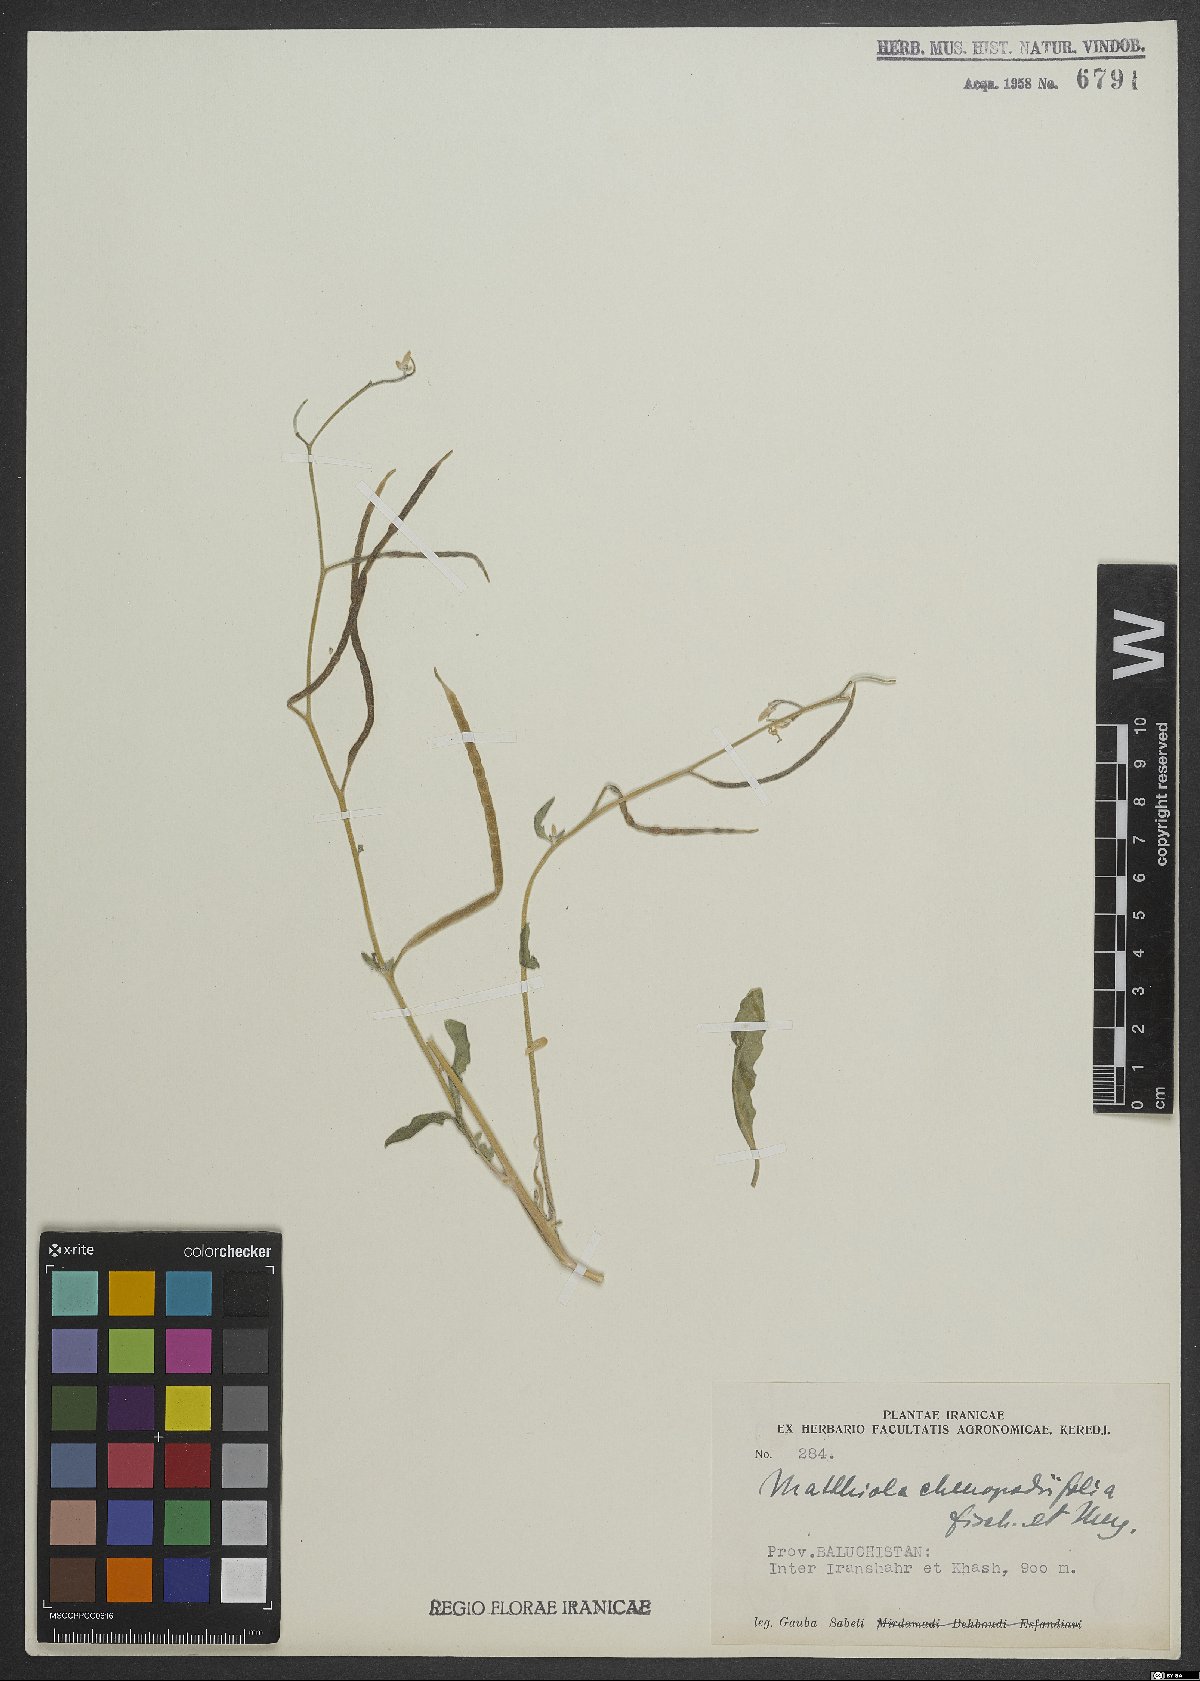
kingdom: Plantae
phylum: Tracheophyta
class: Magnoliopsida
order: Brassicales
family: Brassicaceae
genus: Matthiola
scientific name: Matthiola chenopodiifolia
